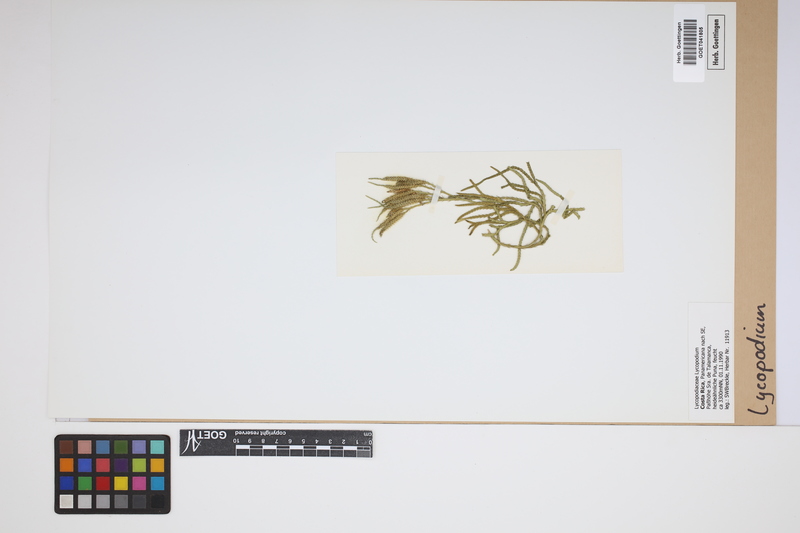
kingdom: Plantae
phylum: Tracheophyta
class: Lycopodiopsida
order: Lycopodiales
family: Lycopodiaceae
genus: Lycopodium
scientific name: Lycopodium
